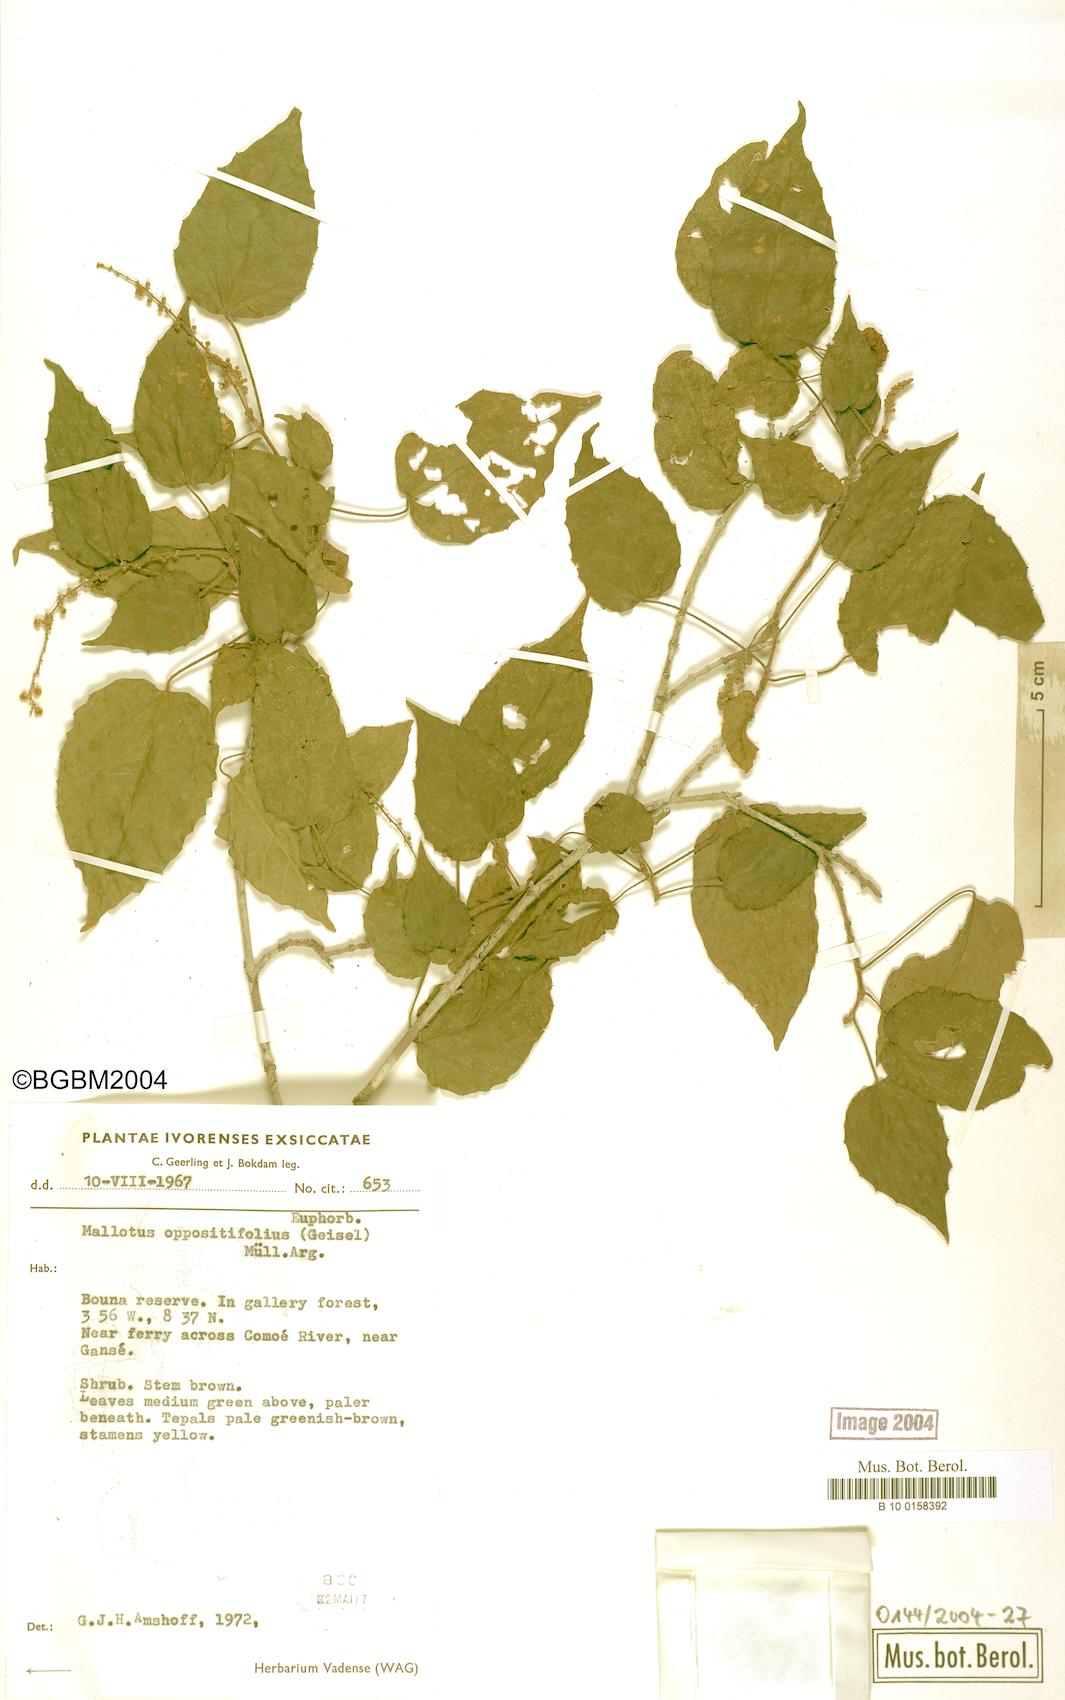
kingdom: Plantae
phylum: Tracheophyta
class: Magnoliopsida
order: Malpighiales
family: Euphorbiaceae
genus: Mallotus
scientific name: Mallotus oppositifolius
